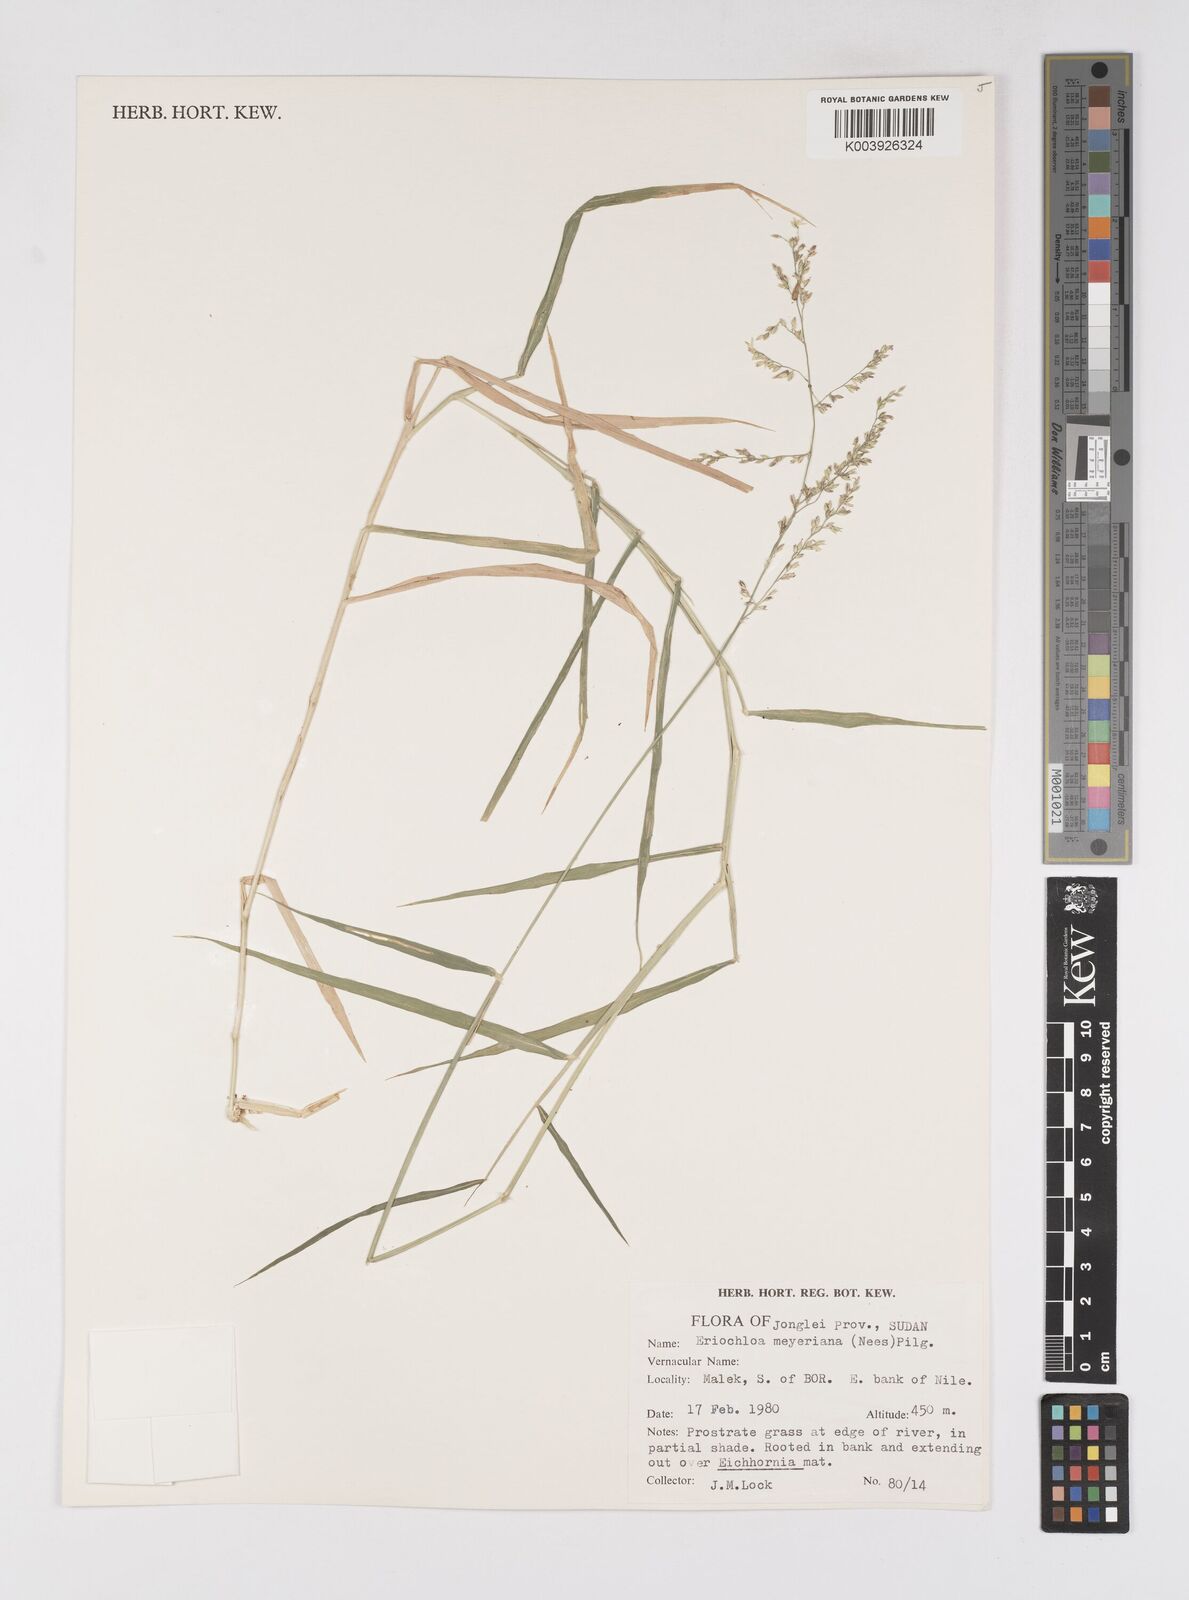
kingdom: Plantae
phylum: Tracheophyta
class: Liliopsida
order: Poales
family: Poaceae
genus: Eriochloa
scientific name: Eriochloa meyeriana
